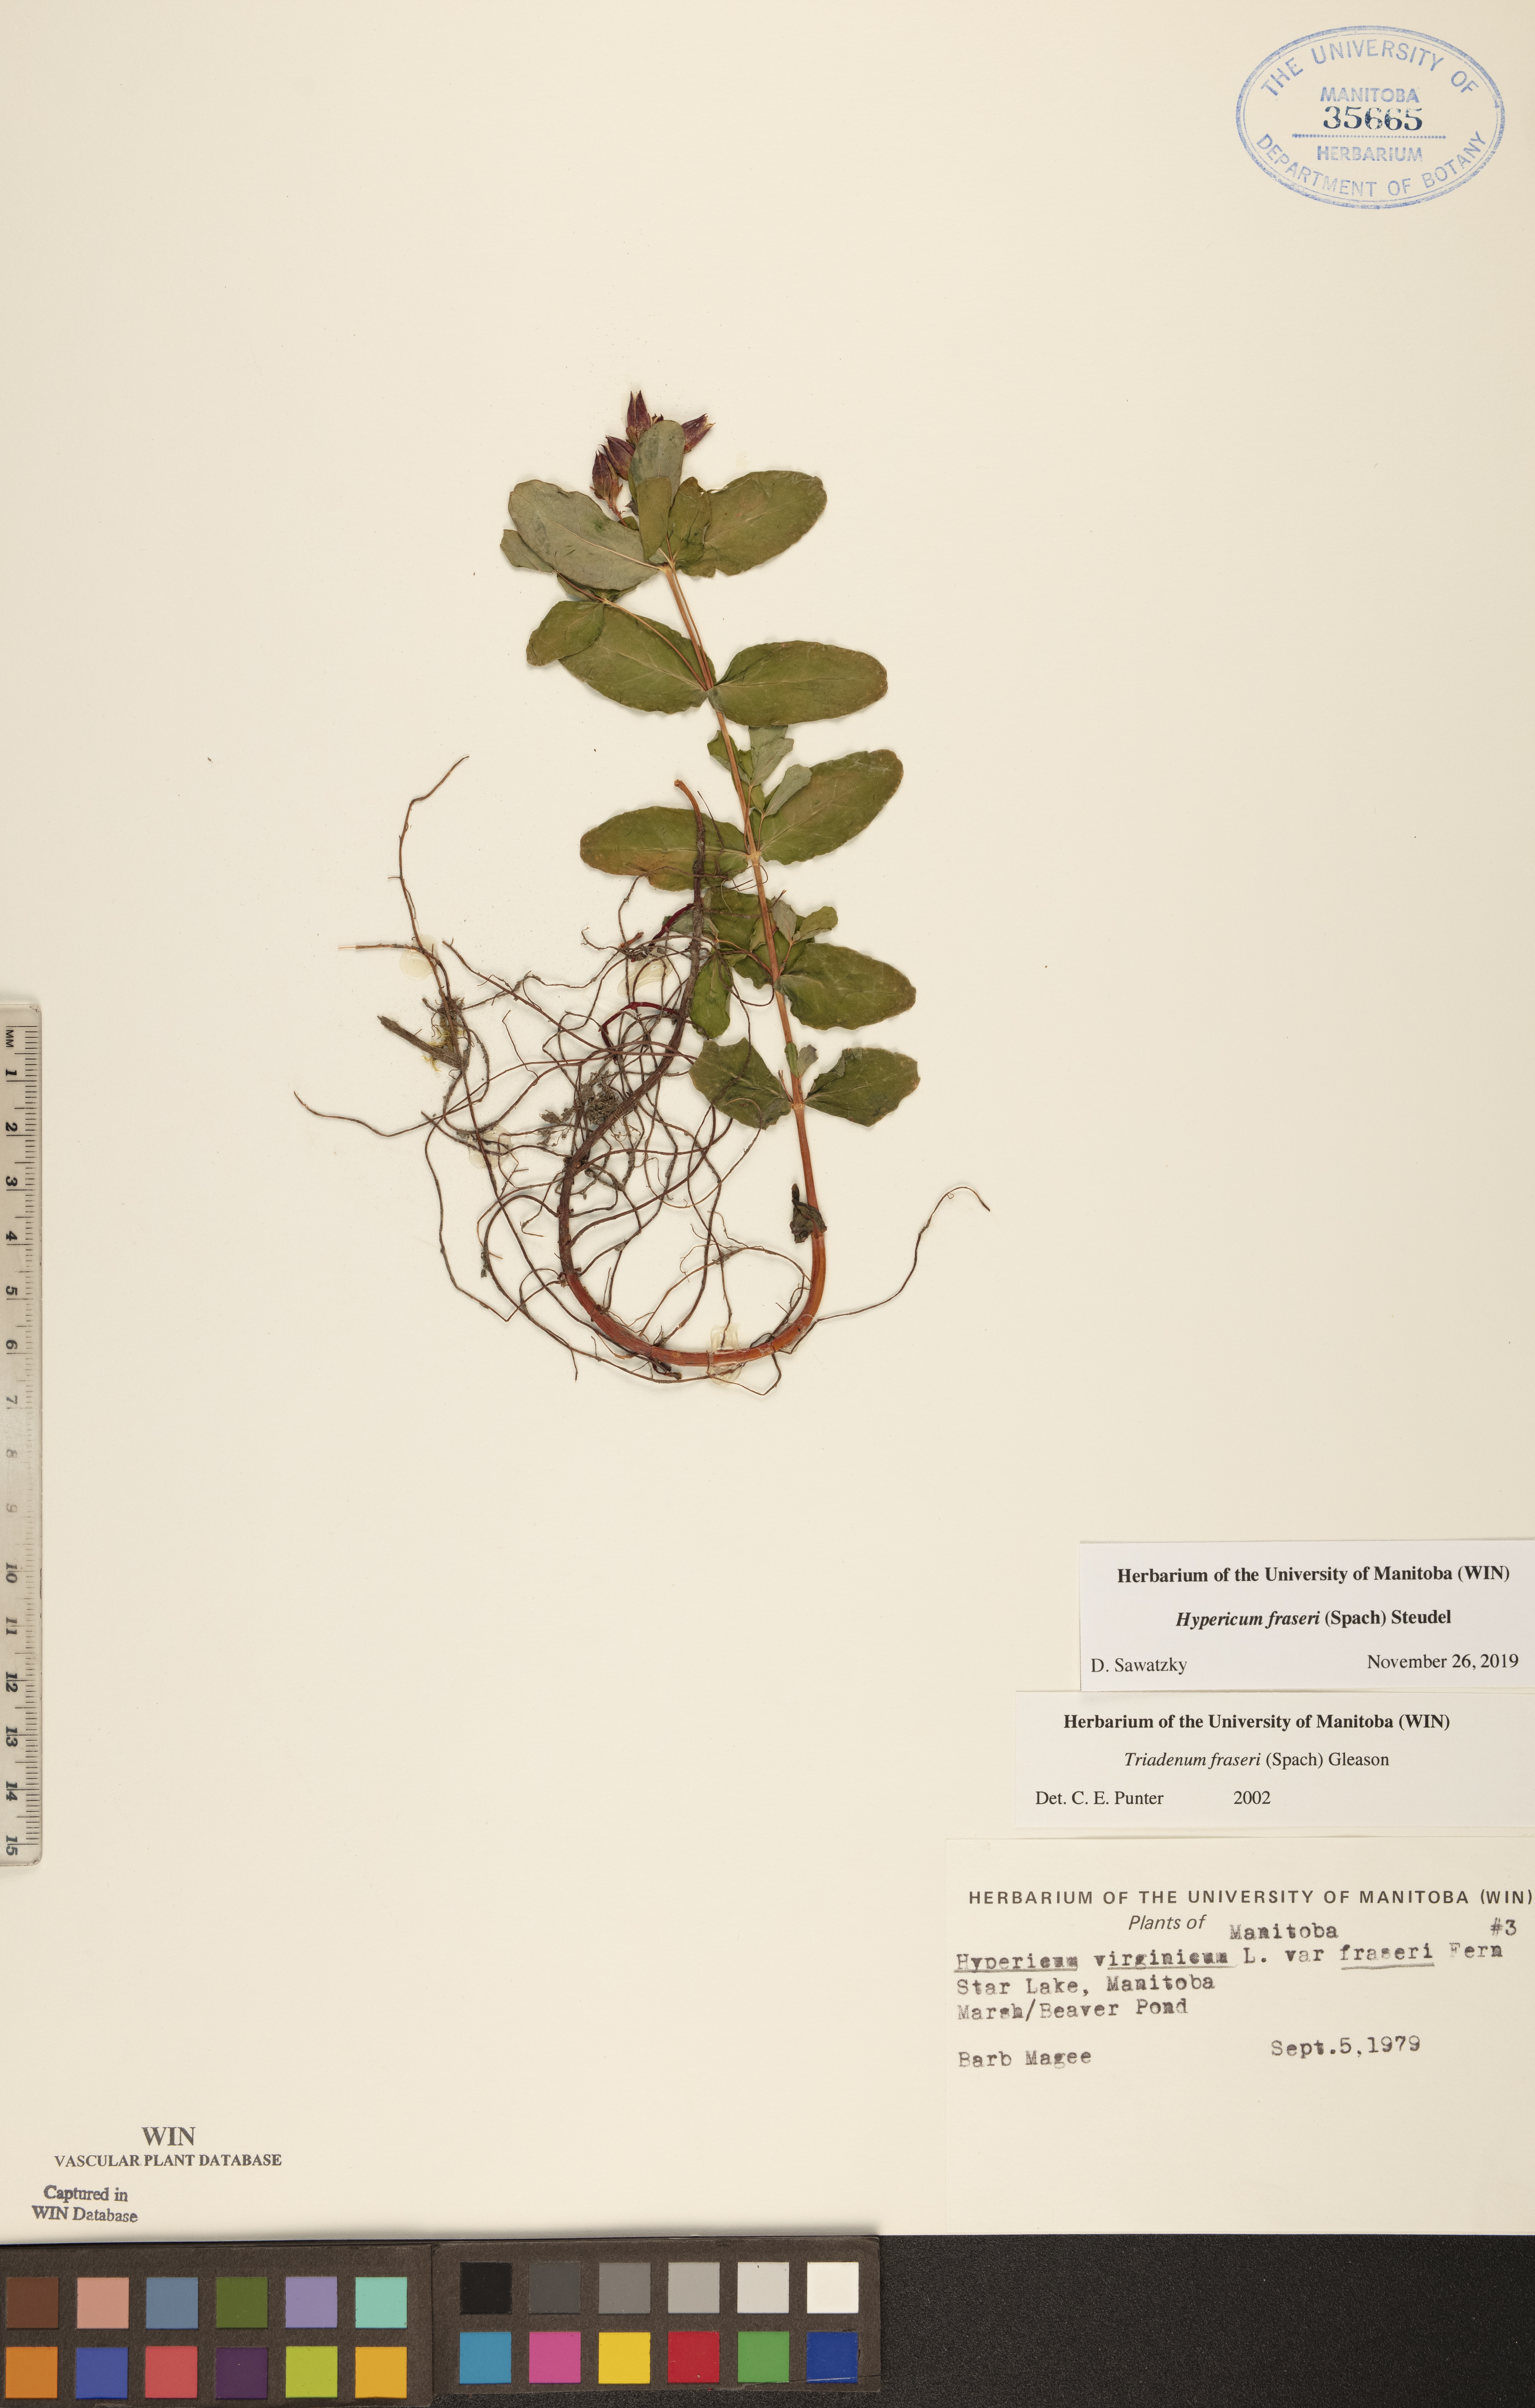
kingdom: Plantae
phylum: Tracheophyta
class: Magnoliopsida
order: Malpighiales
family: Hypericaceae
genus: Triadenum
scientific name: Triadenum fraseri
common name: Fraser's marsh st. johnswort
